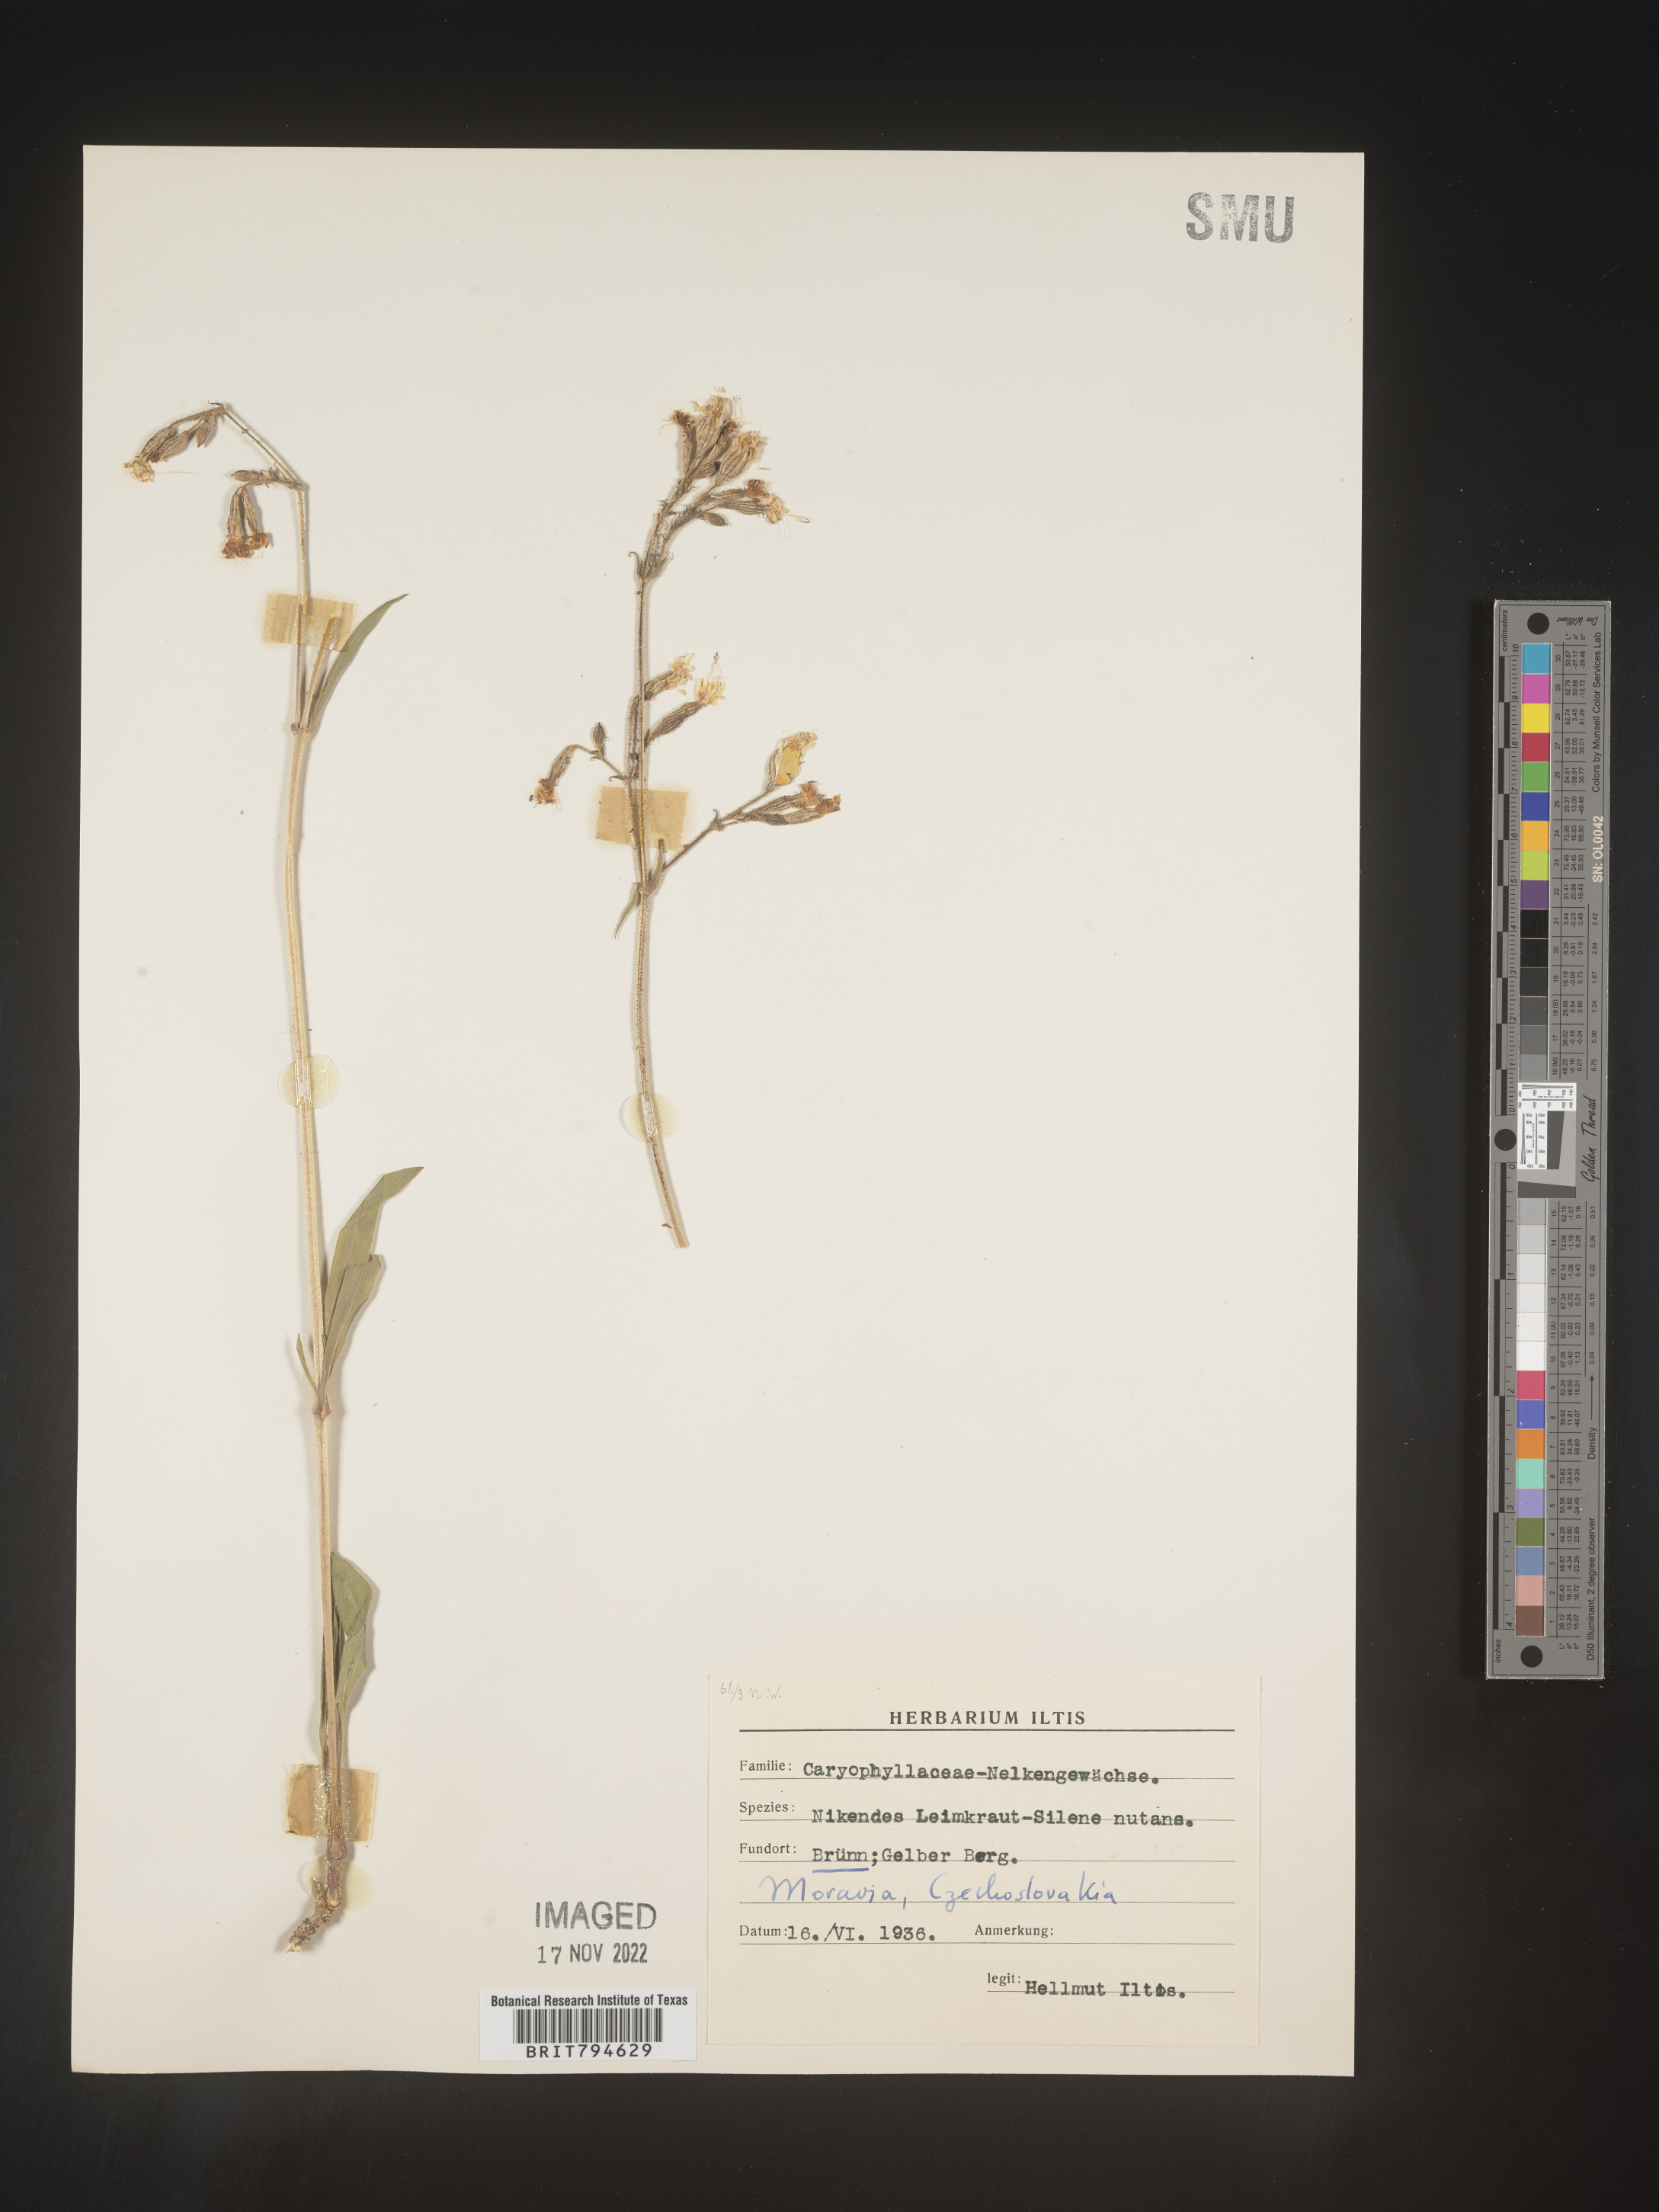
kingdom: Plantae
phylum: Tracheophyta
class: Magnoliopsida
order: Caryophyllales
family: Caryophyllaceae
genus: Silene
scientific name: Silene nutans
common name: Nottingham catchfly
